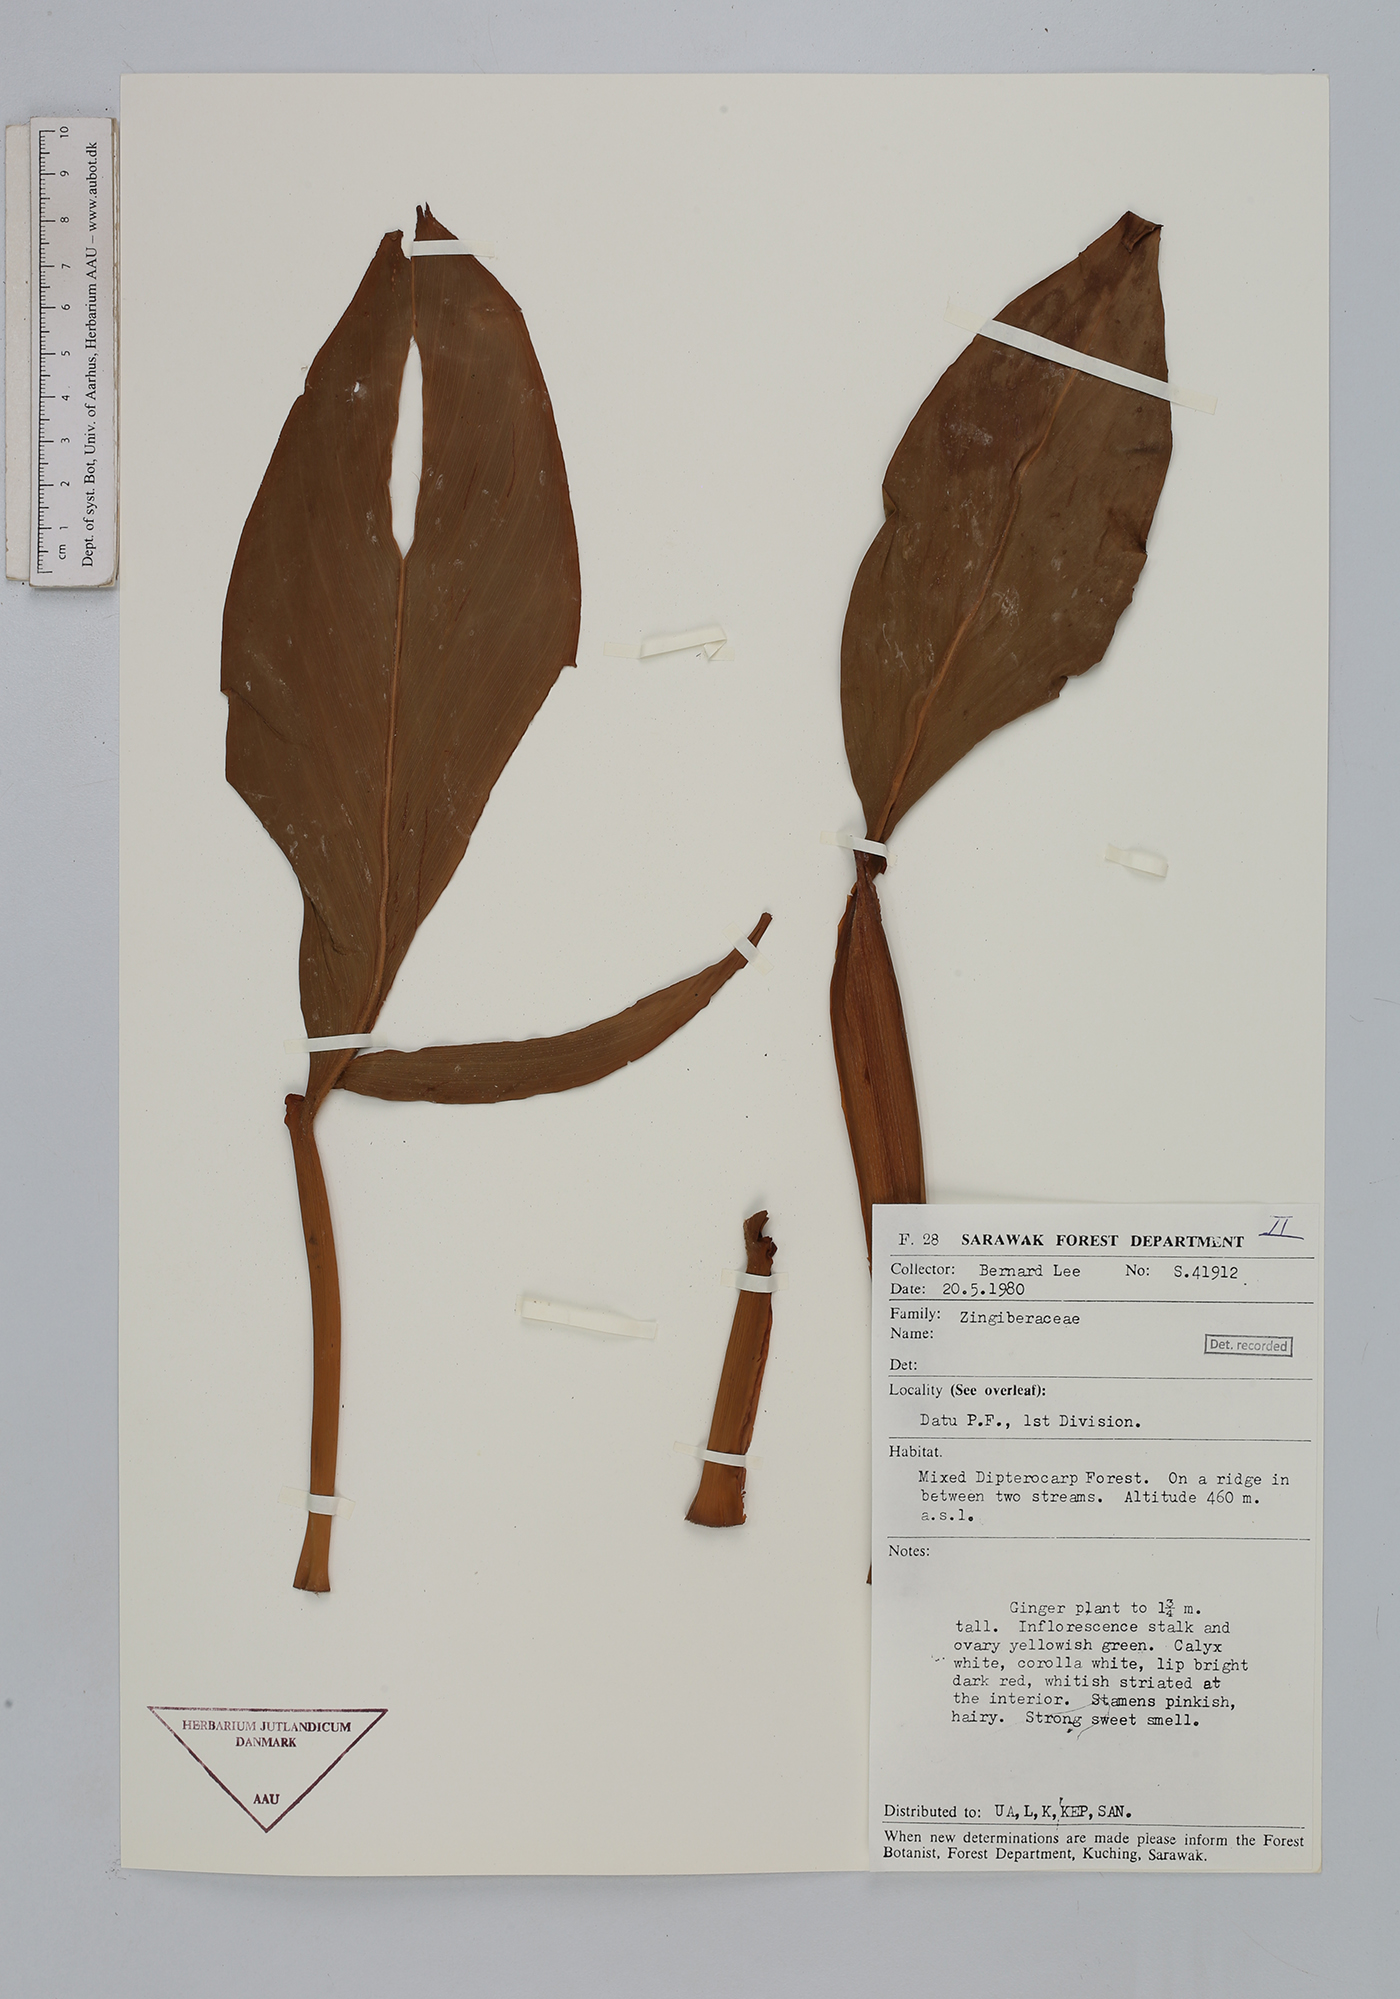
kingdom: Plantae
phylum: Tracheophyta
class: Liliopsida
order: Zingiberales
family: Zingiberaceae
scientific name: Zingiberaceae
